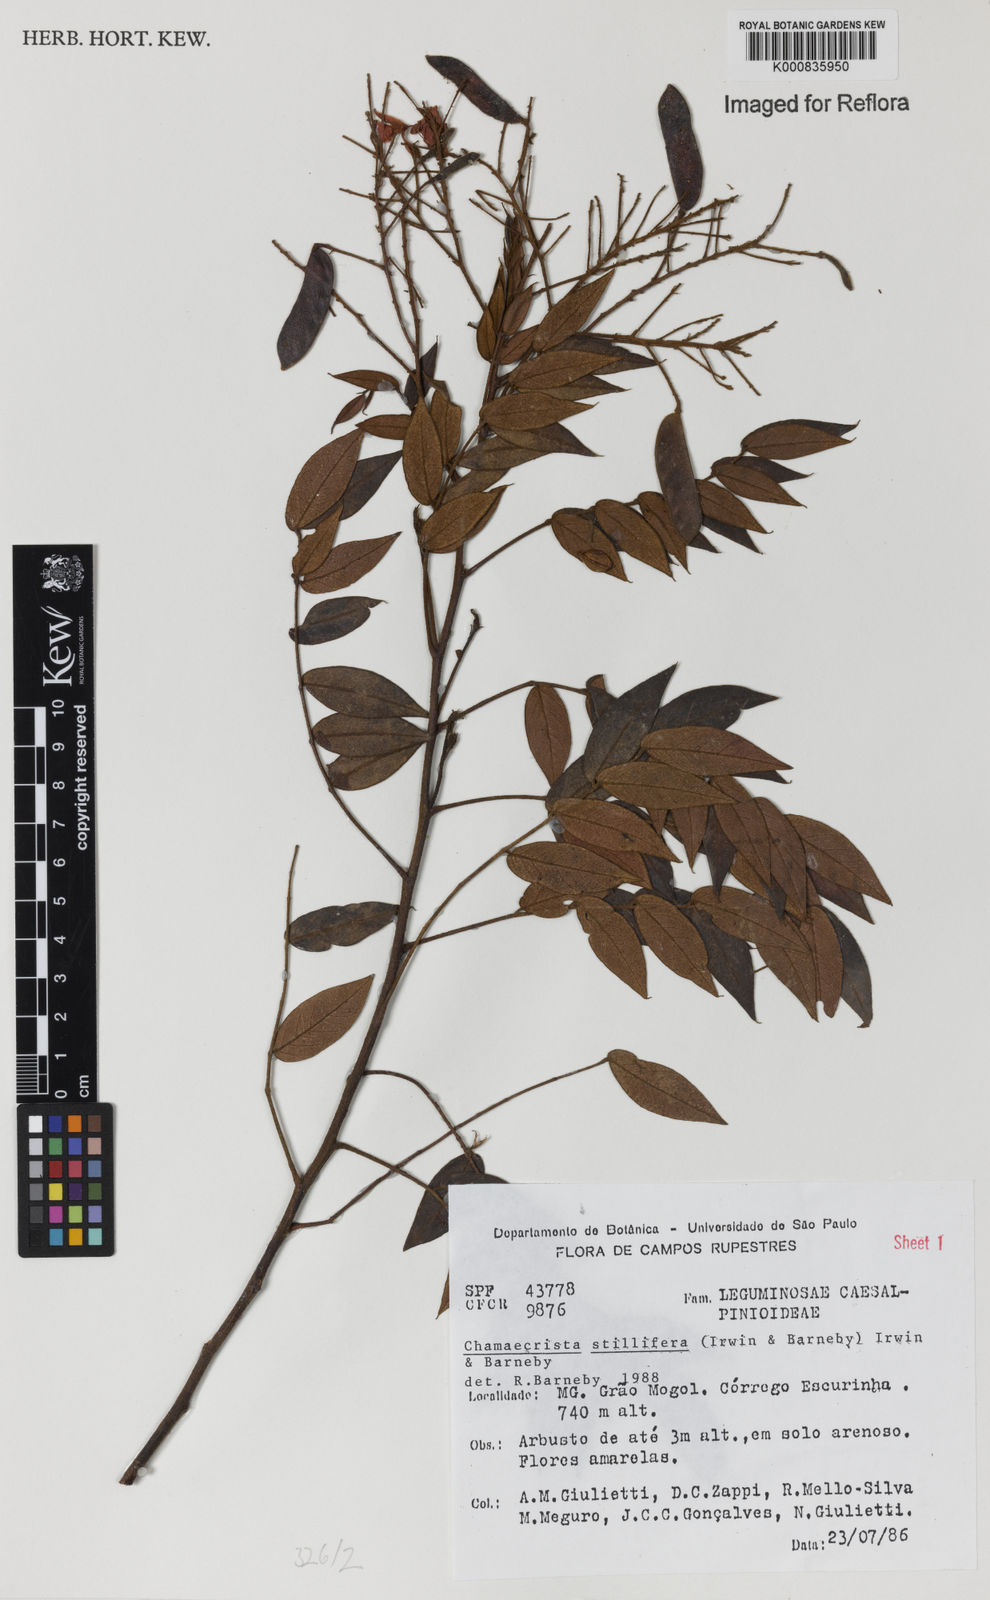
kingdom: Plantae
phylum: Tracheophyta
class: Magnoliopsida
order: Fabales
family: Fabaceae
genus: Chamaecrista
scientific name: Chamaecrista stillifera
